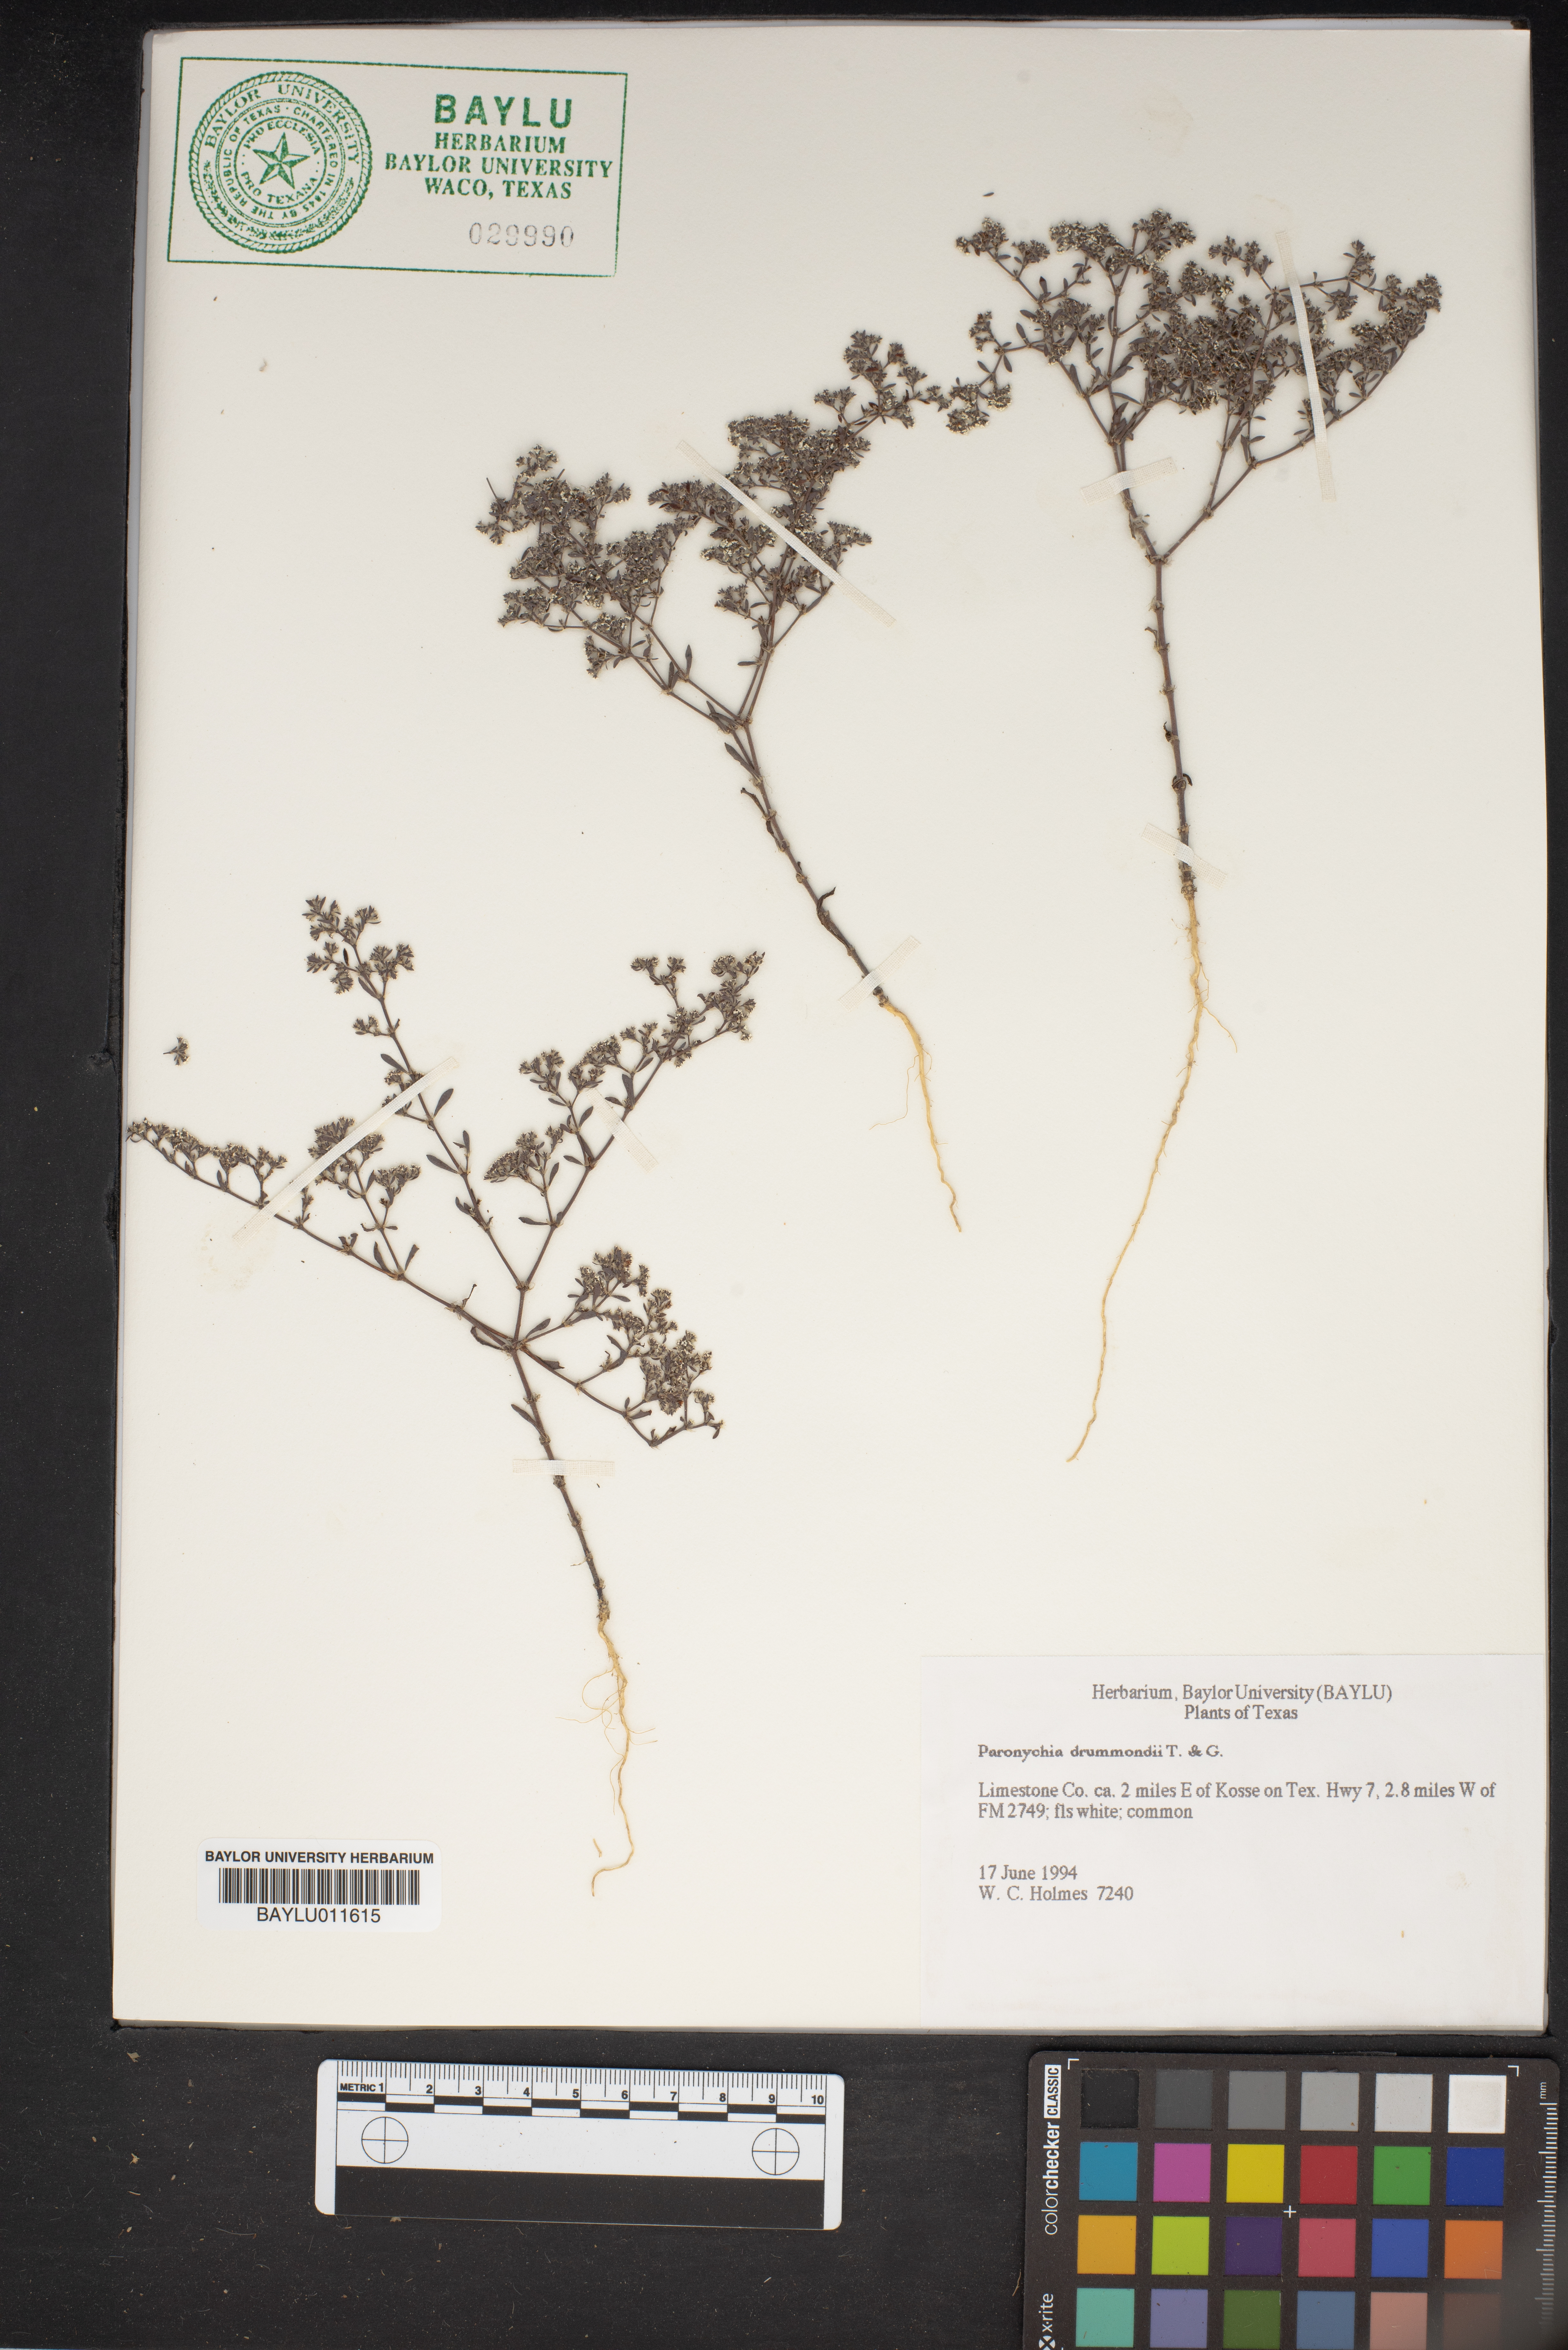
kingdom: Plantae
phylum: Tracheophyta
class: Magnoliopsida
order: Caryophyllales
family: Caryophyllaceae
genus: Paronychia
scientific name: Paronychia drummondii
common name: Drummond's nailwort
